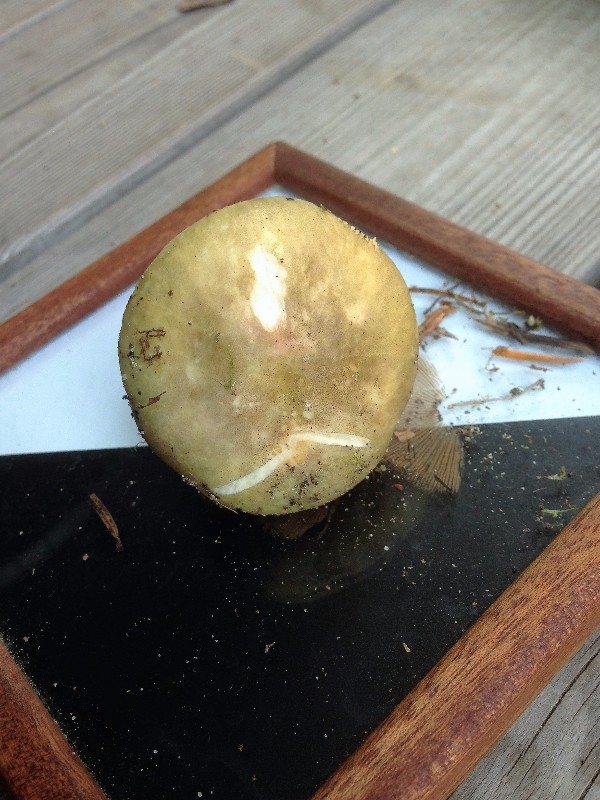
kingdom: Fungi
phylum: Basidiomycota
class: Agaricomycetes
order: Russulales
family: Russulaceae
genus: Russula
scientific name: Russula violeipes
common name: ferskengul skørhat
